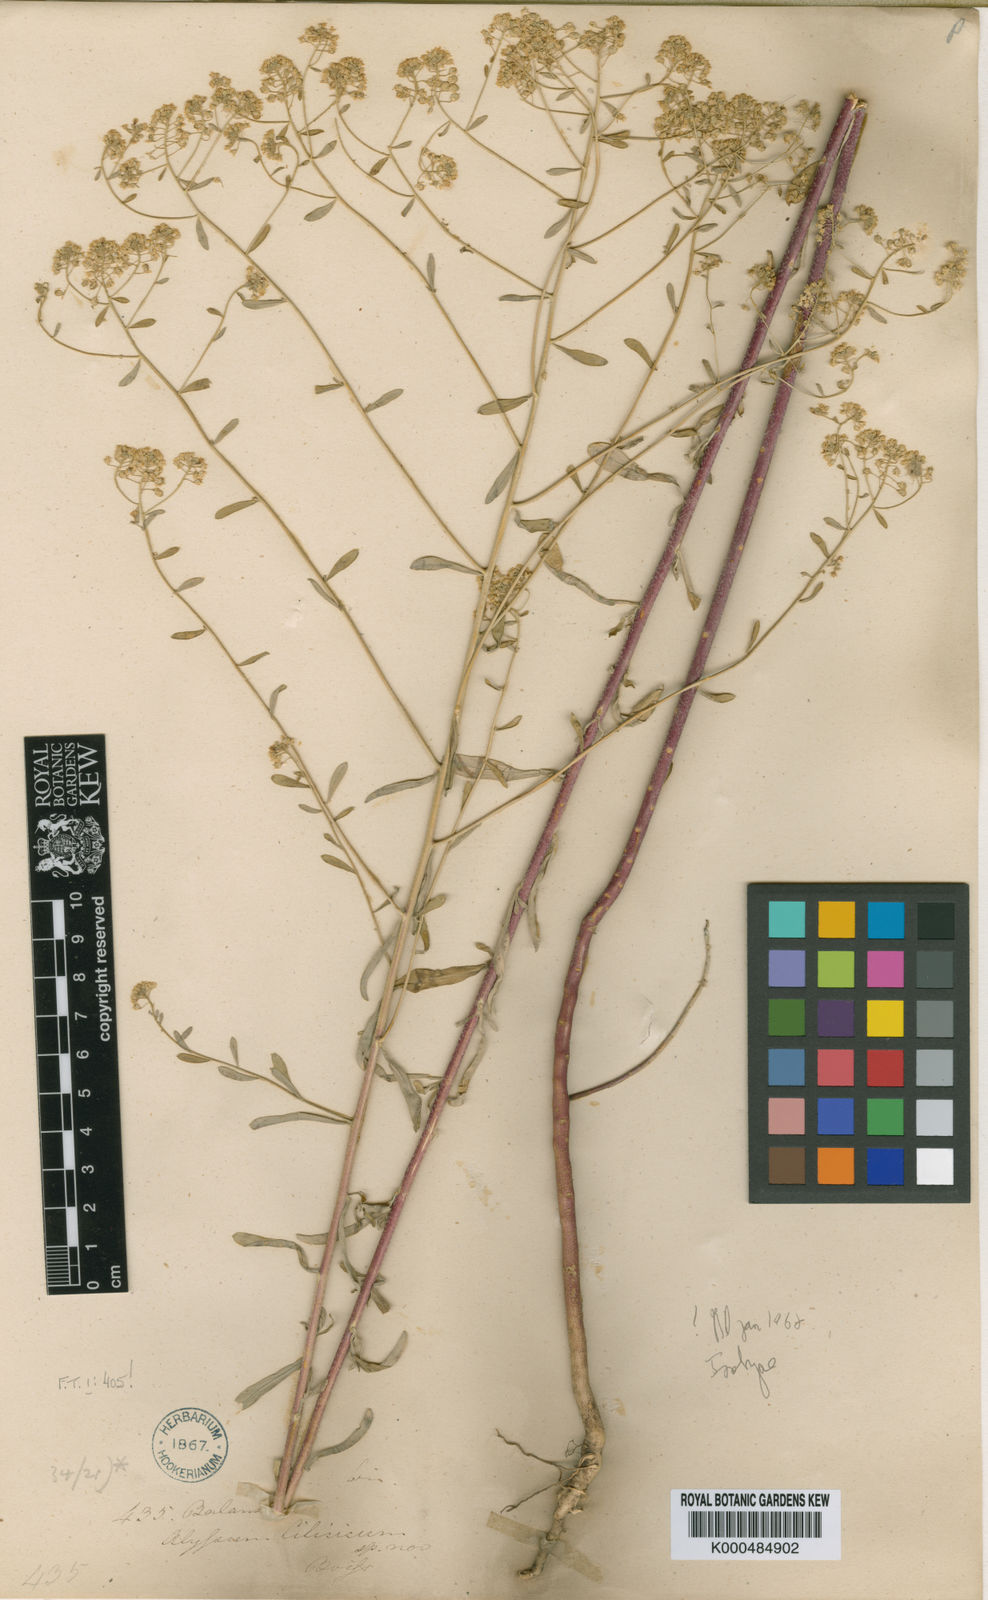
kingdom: Plantae
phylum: Tracheophyta
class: Magnoliopsida
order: Brassicales
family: Brassicaceae
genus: Odontarrhena
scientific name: Odontarrhena
